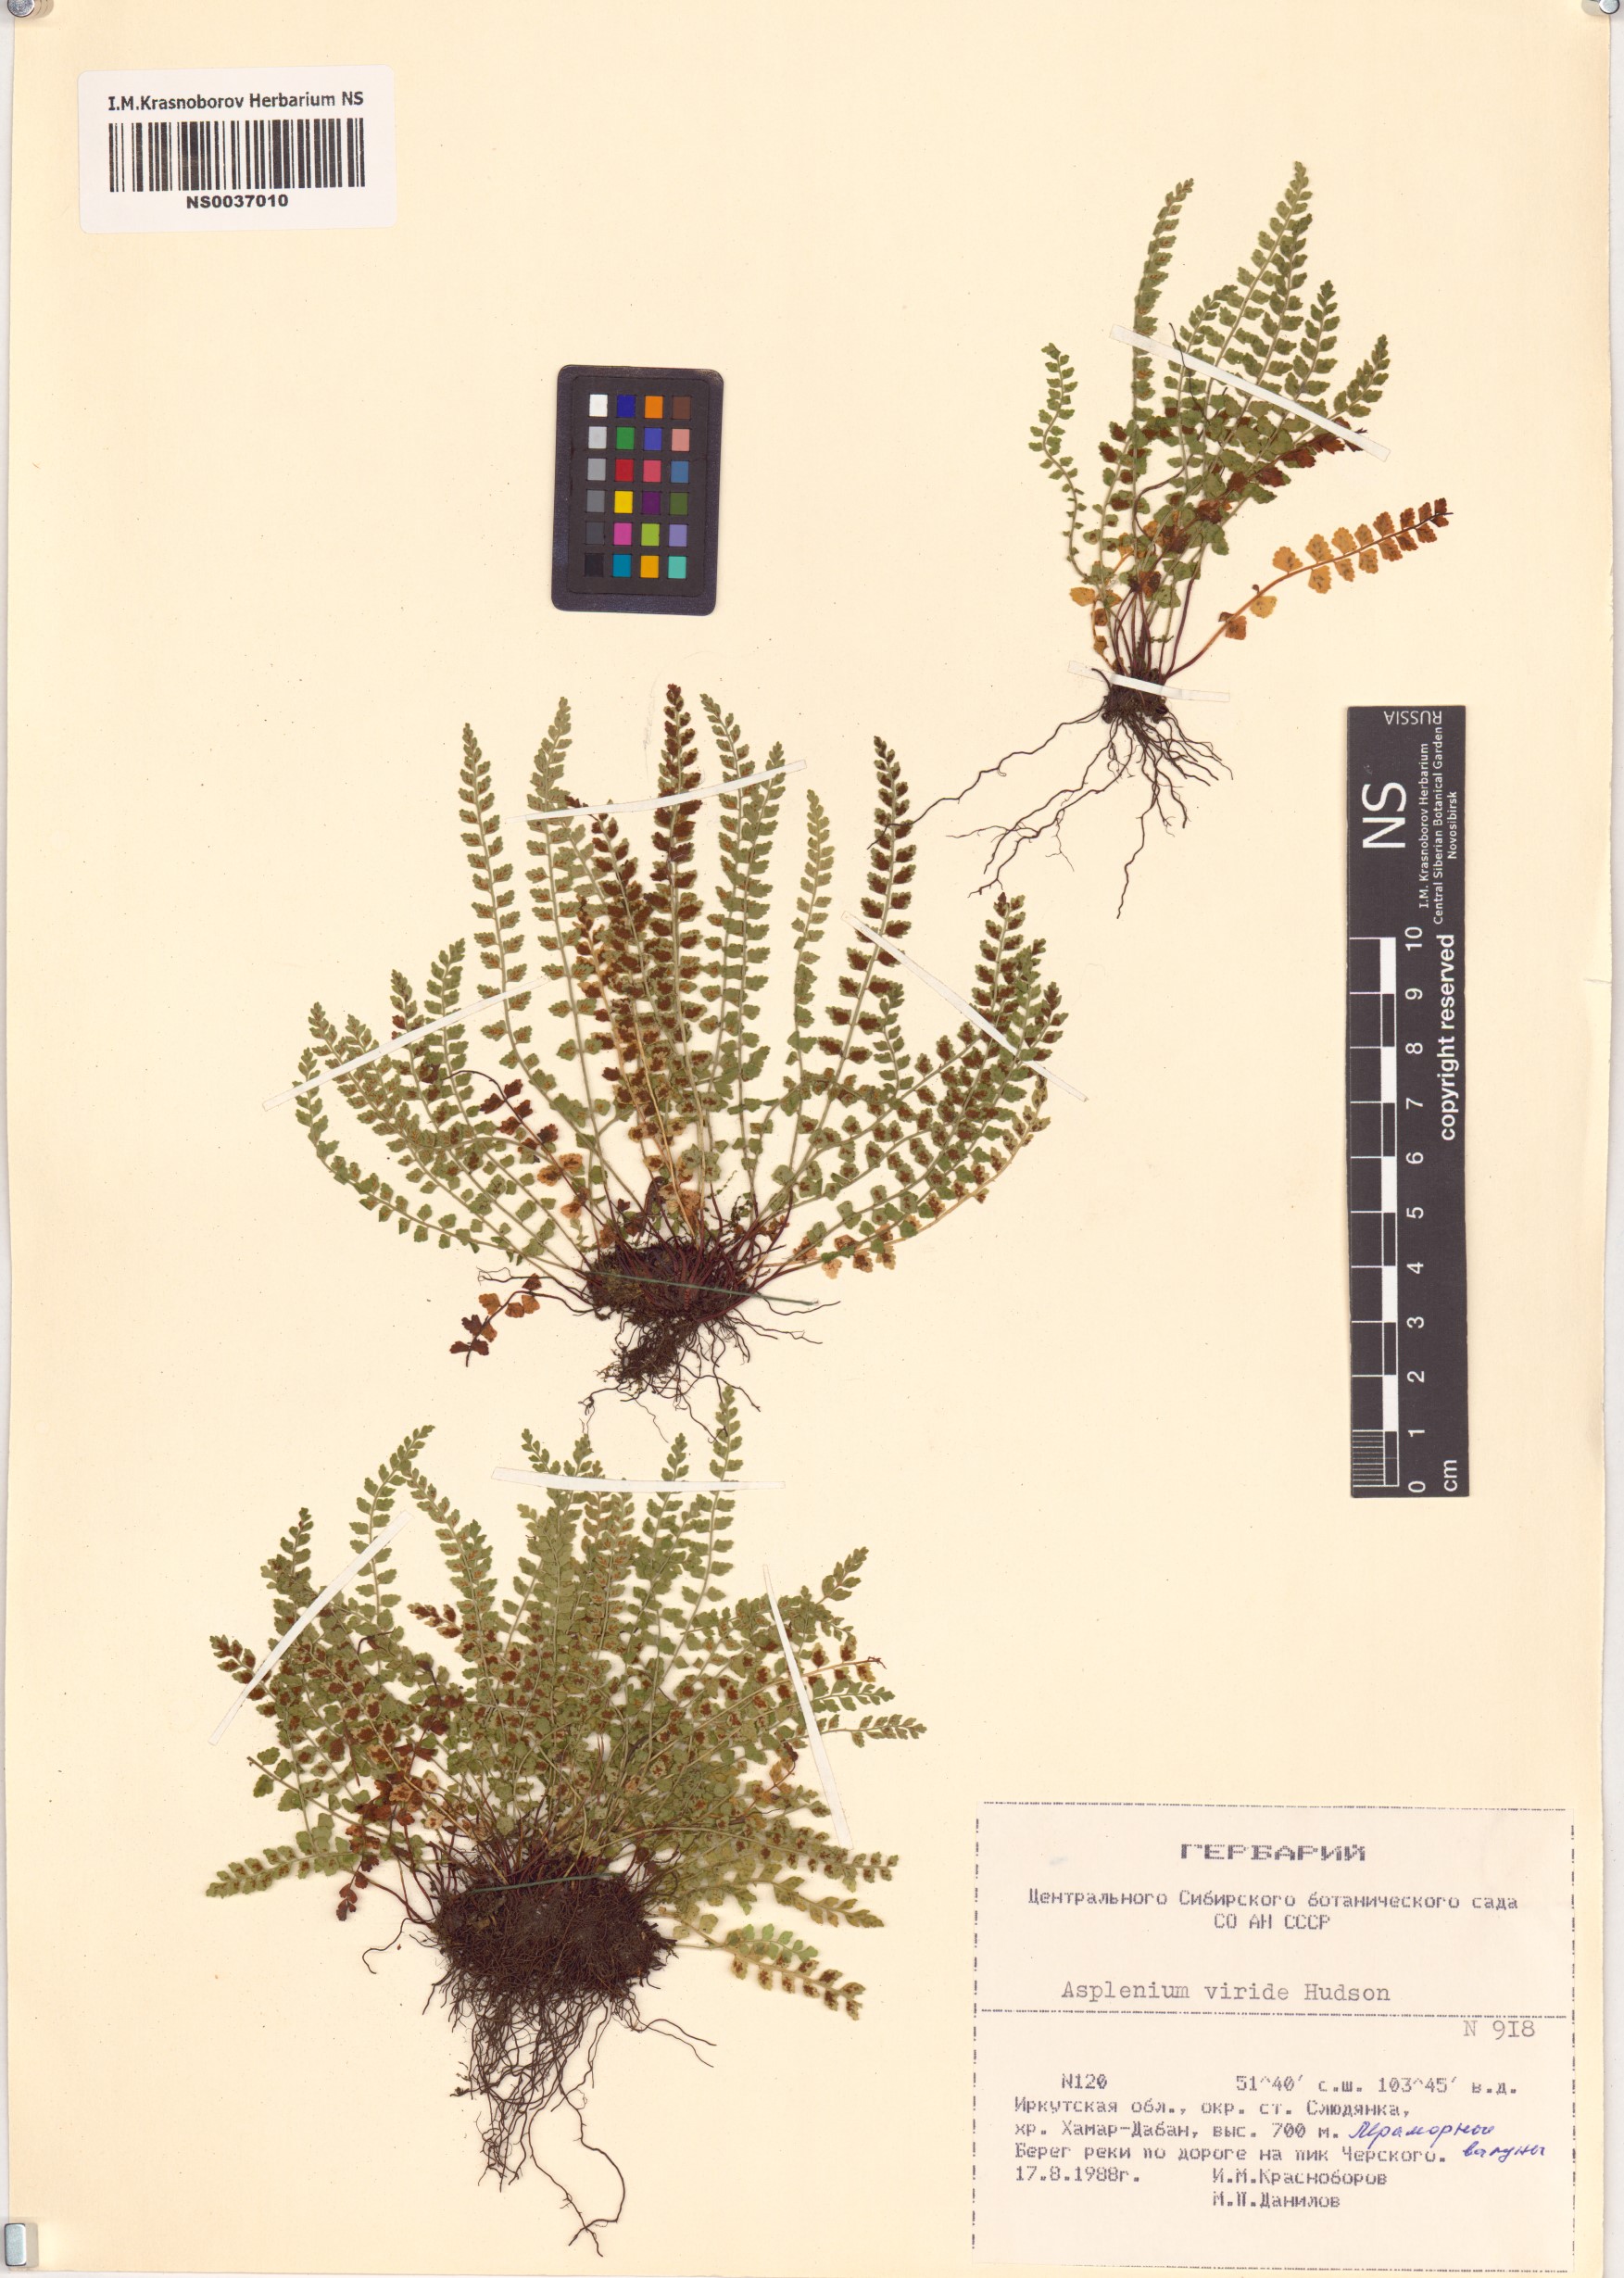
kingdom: Plantae
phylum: Tracheophyta
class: Polypodiopsida
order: Polypodiales
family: Aspleniaceae
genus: Asplenium
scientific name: Asplenium viride
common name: Green spleenwort
